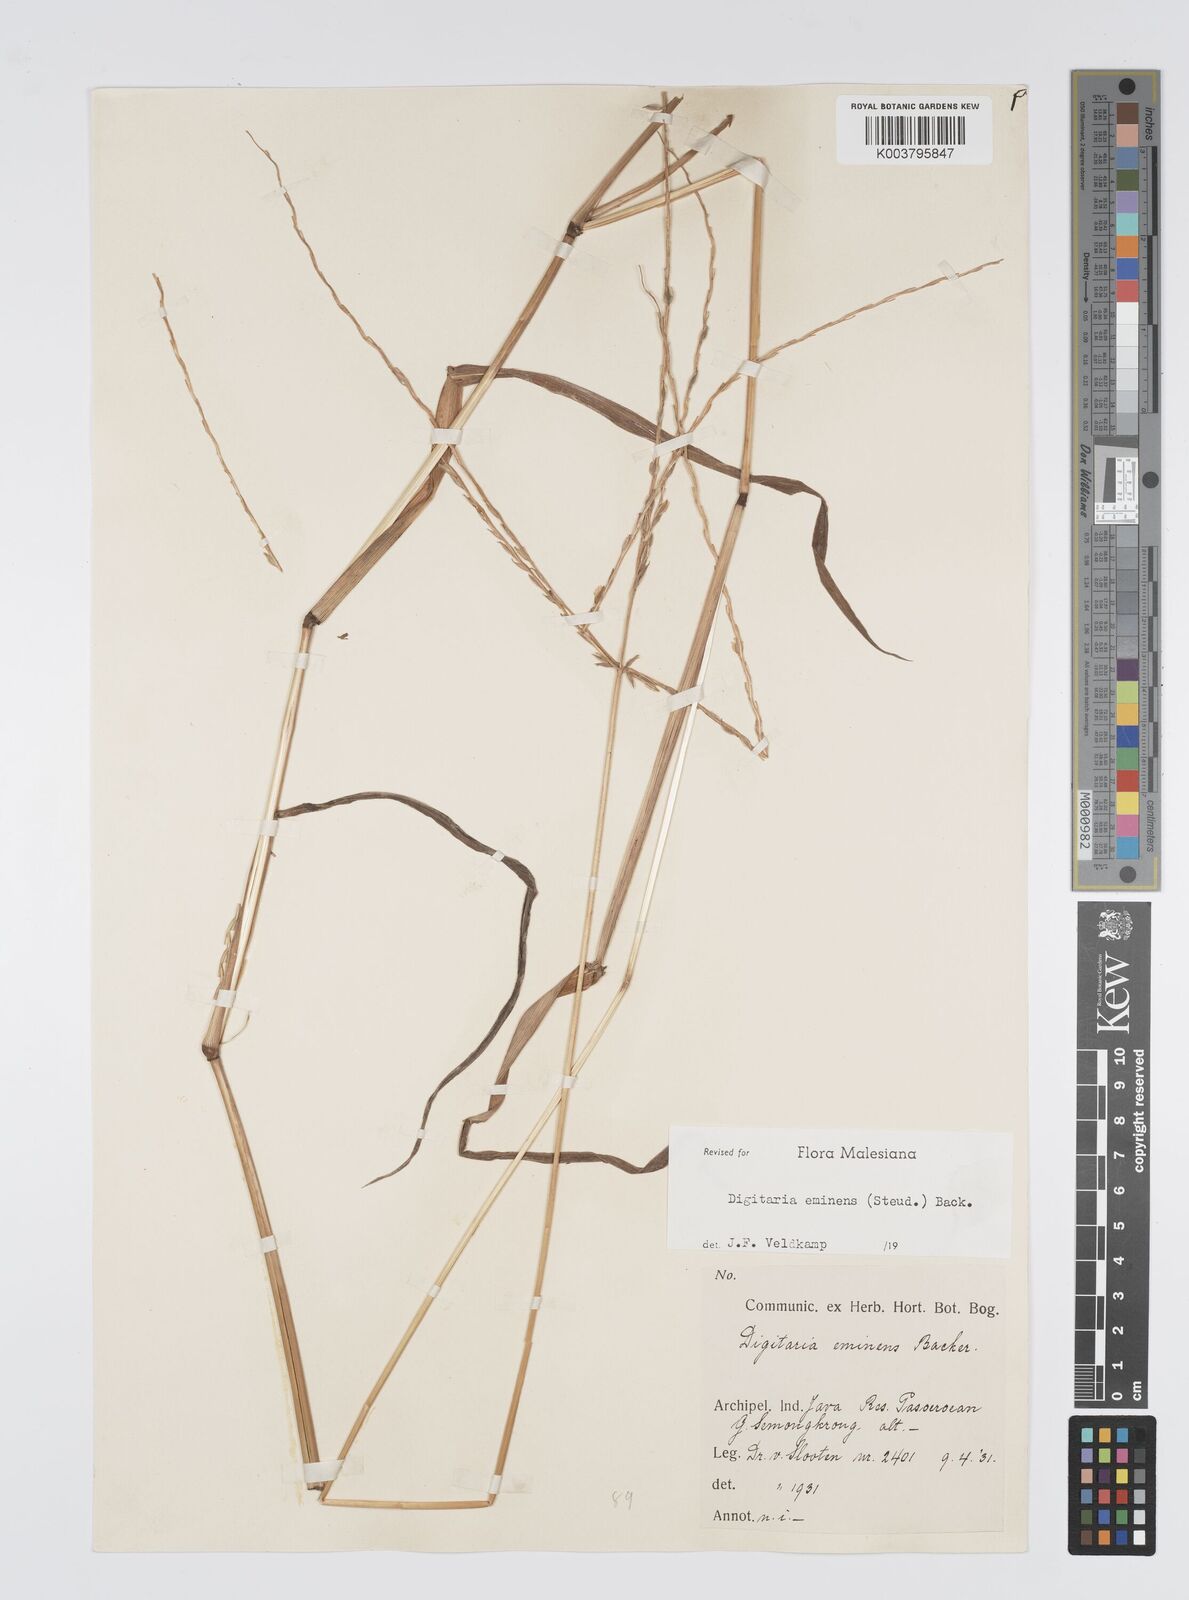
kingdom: Plantae
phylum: Tracheophyta
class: Liliopsida
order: Poales
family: Poaceae
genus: Digitaria
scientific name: Digitaria eminens
